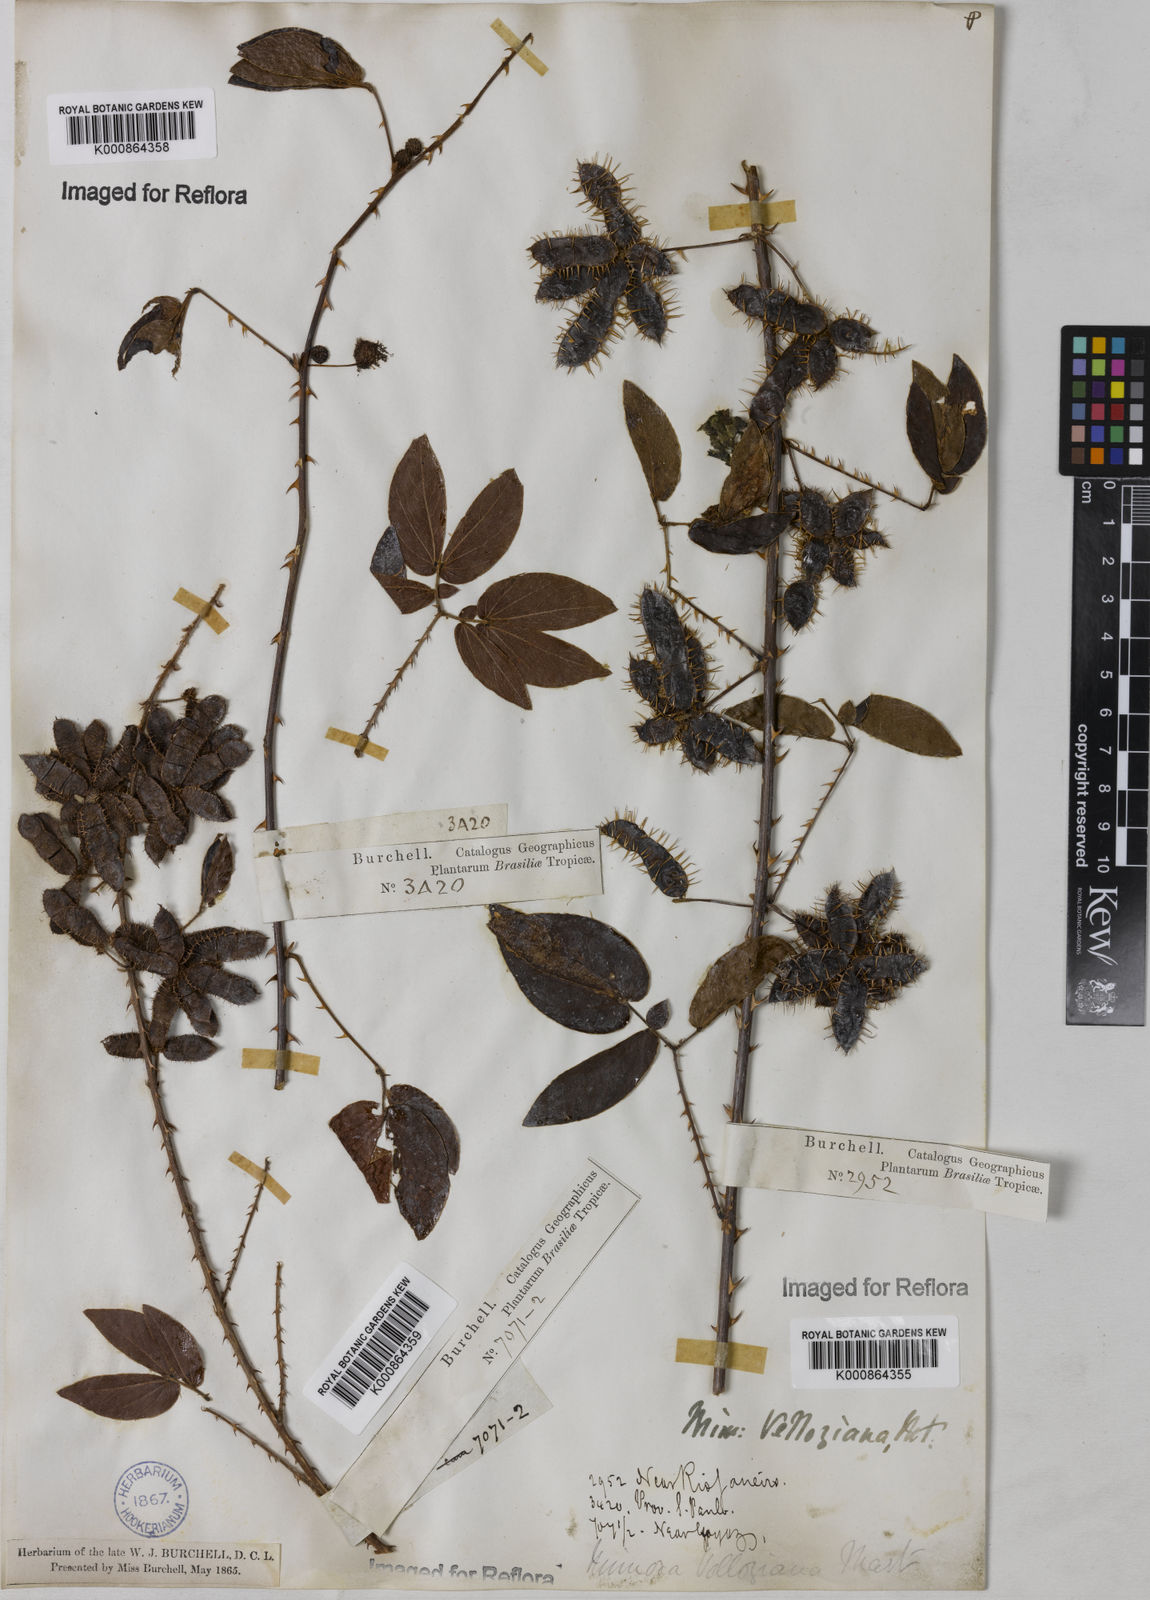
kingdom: Plantae
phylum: Tracheophyta
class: Magnoliopsida
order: Fabales
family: Fabaceae
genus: Mimosa
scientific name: Mimosa velloziana
